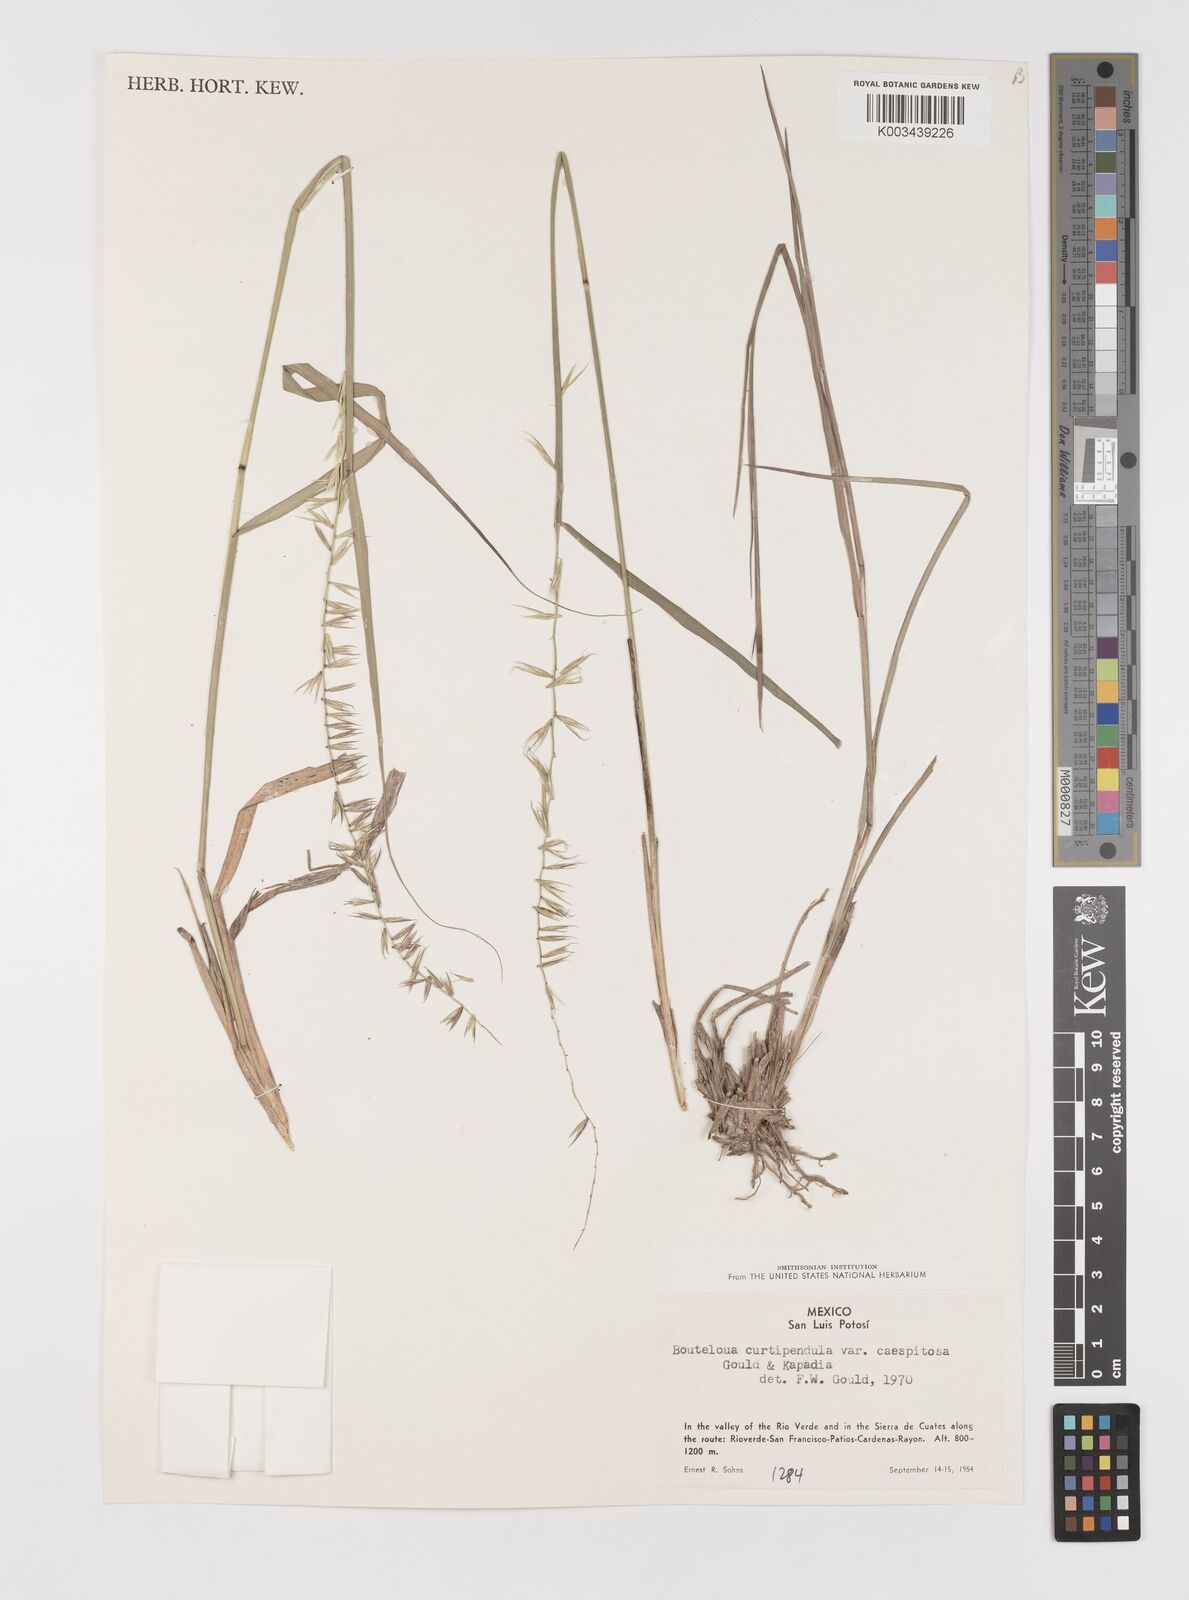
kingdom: Plantae
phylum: Tracheophyta
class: Liliopsida
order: Poales
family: Poaceae
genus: Bouteloua
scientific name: Bouteloua curtipendula
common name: Side-oats grama
